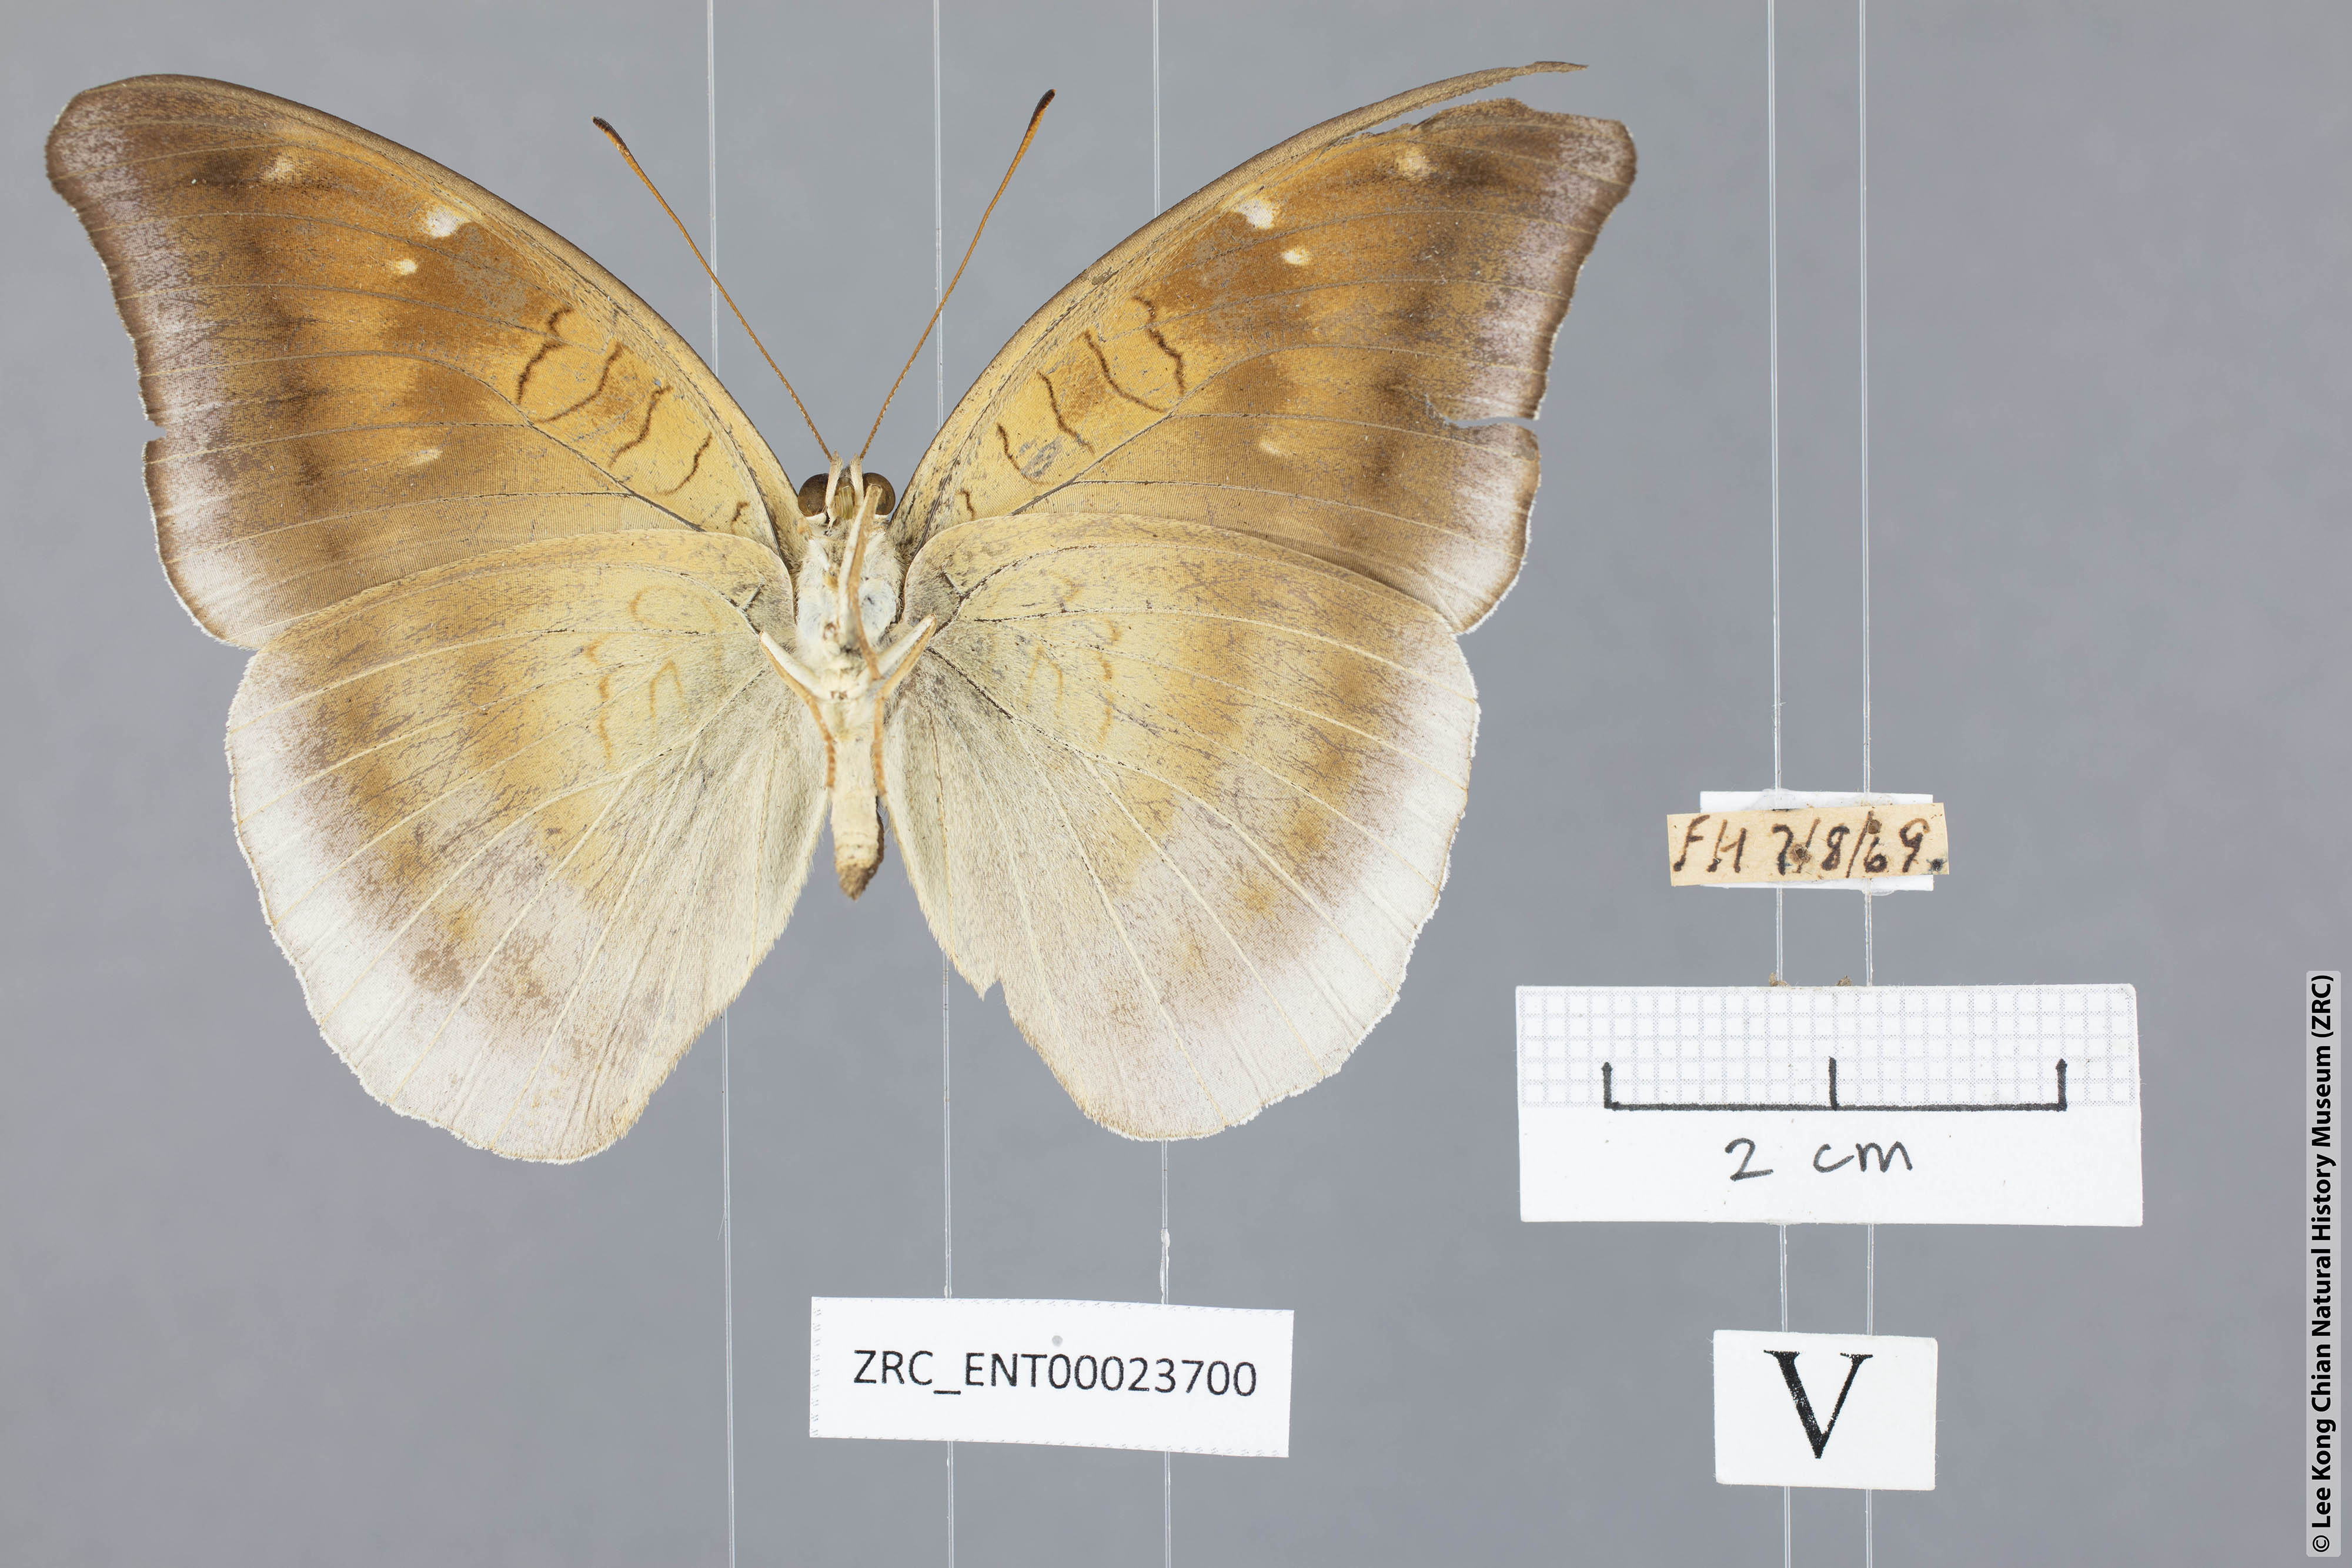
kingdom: Animalia
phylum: Arthropoda
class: Insecta
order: Lepidoptera
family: Nymphalidae
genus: Tanaecia
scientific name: Tanaecia lepidea
